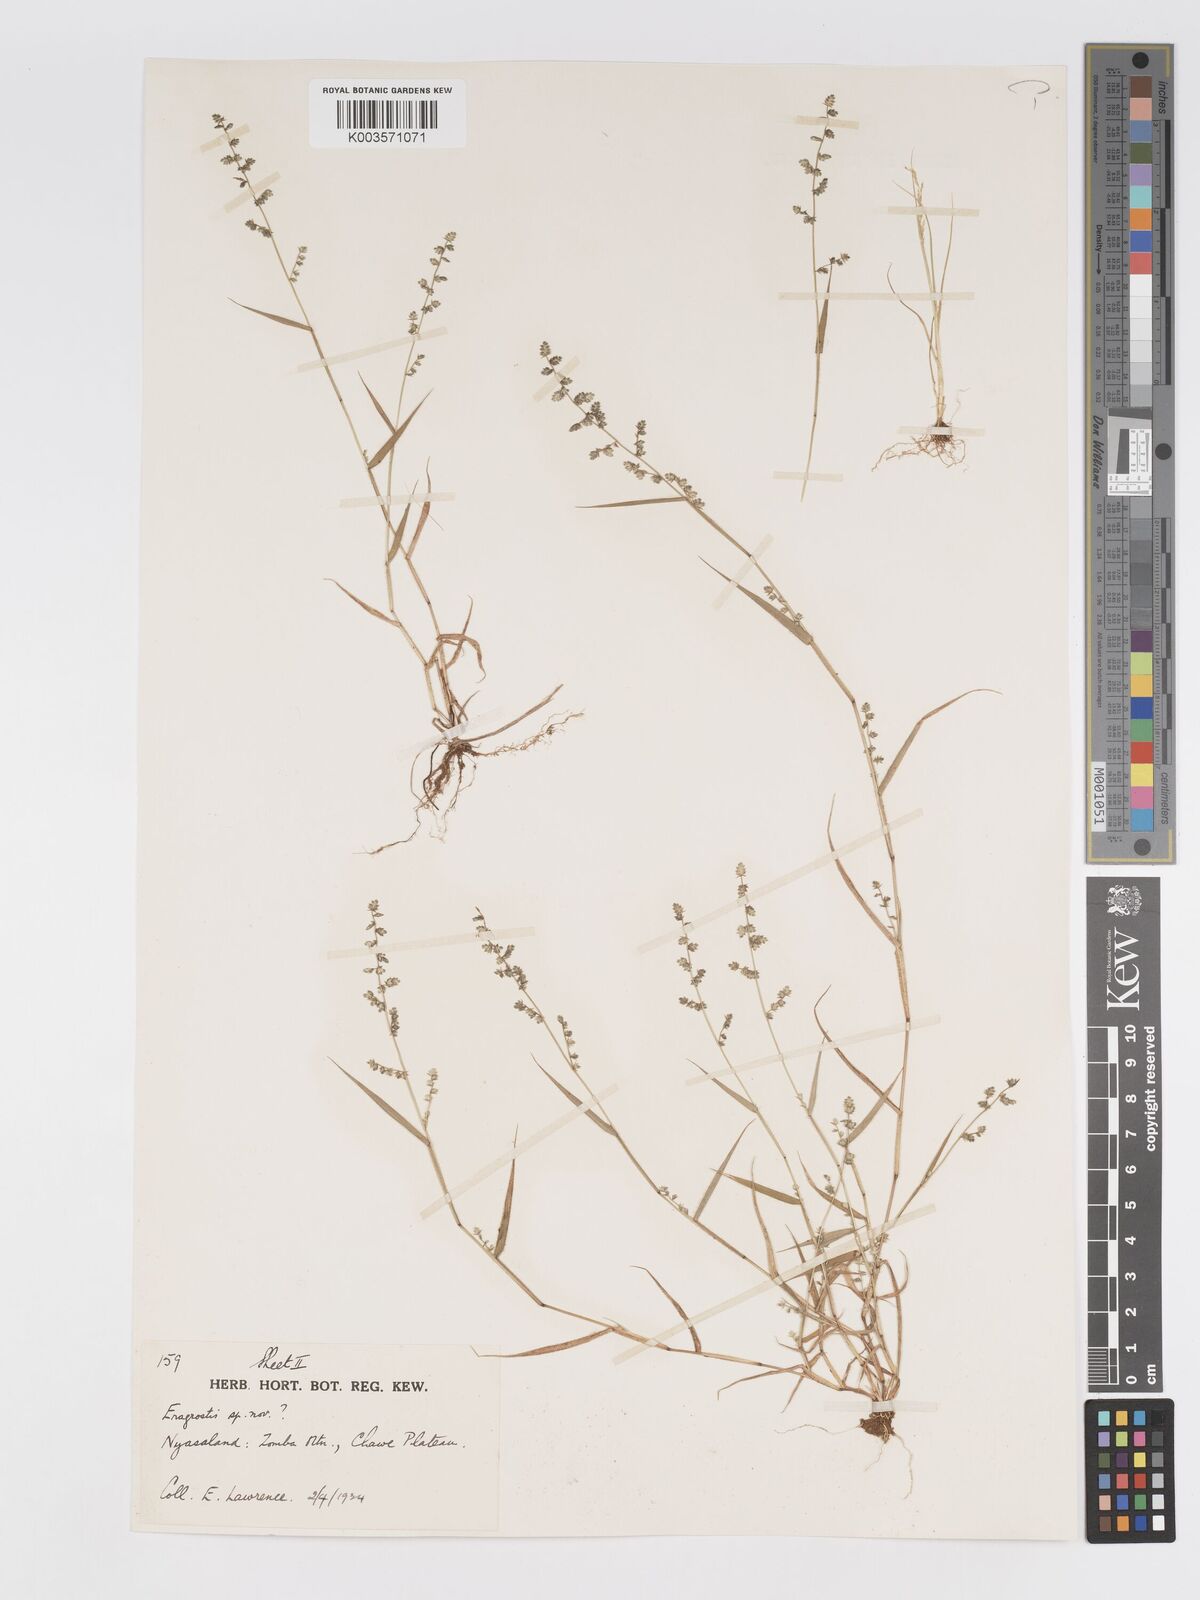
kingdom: Plantae
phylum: Tracheophyta
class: Liliopsida
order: Poales
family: Poaceae
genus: Eragrostis
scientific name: Eragrostis flavicans
